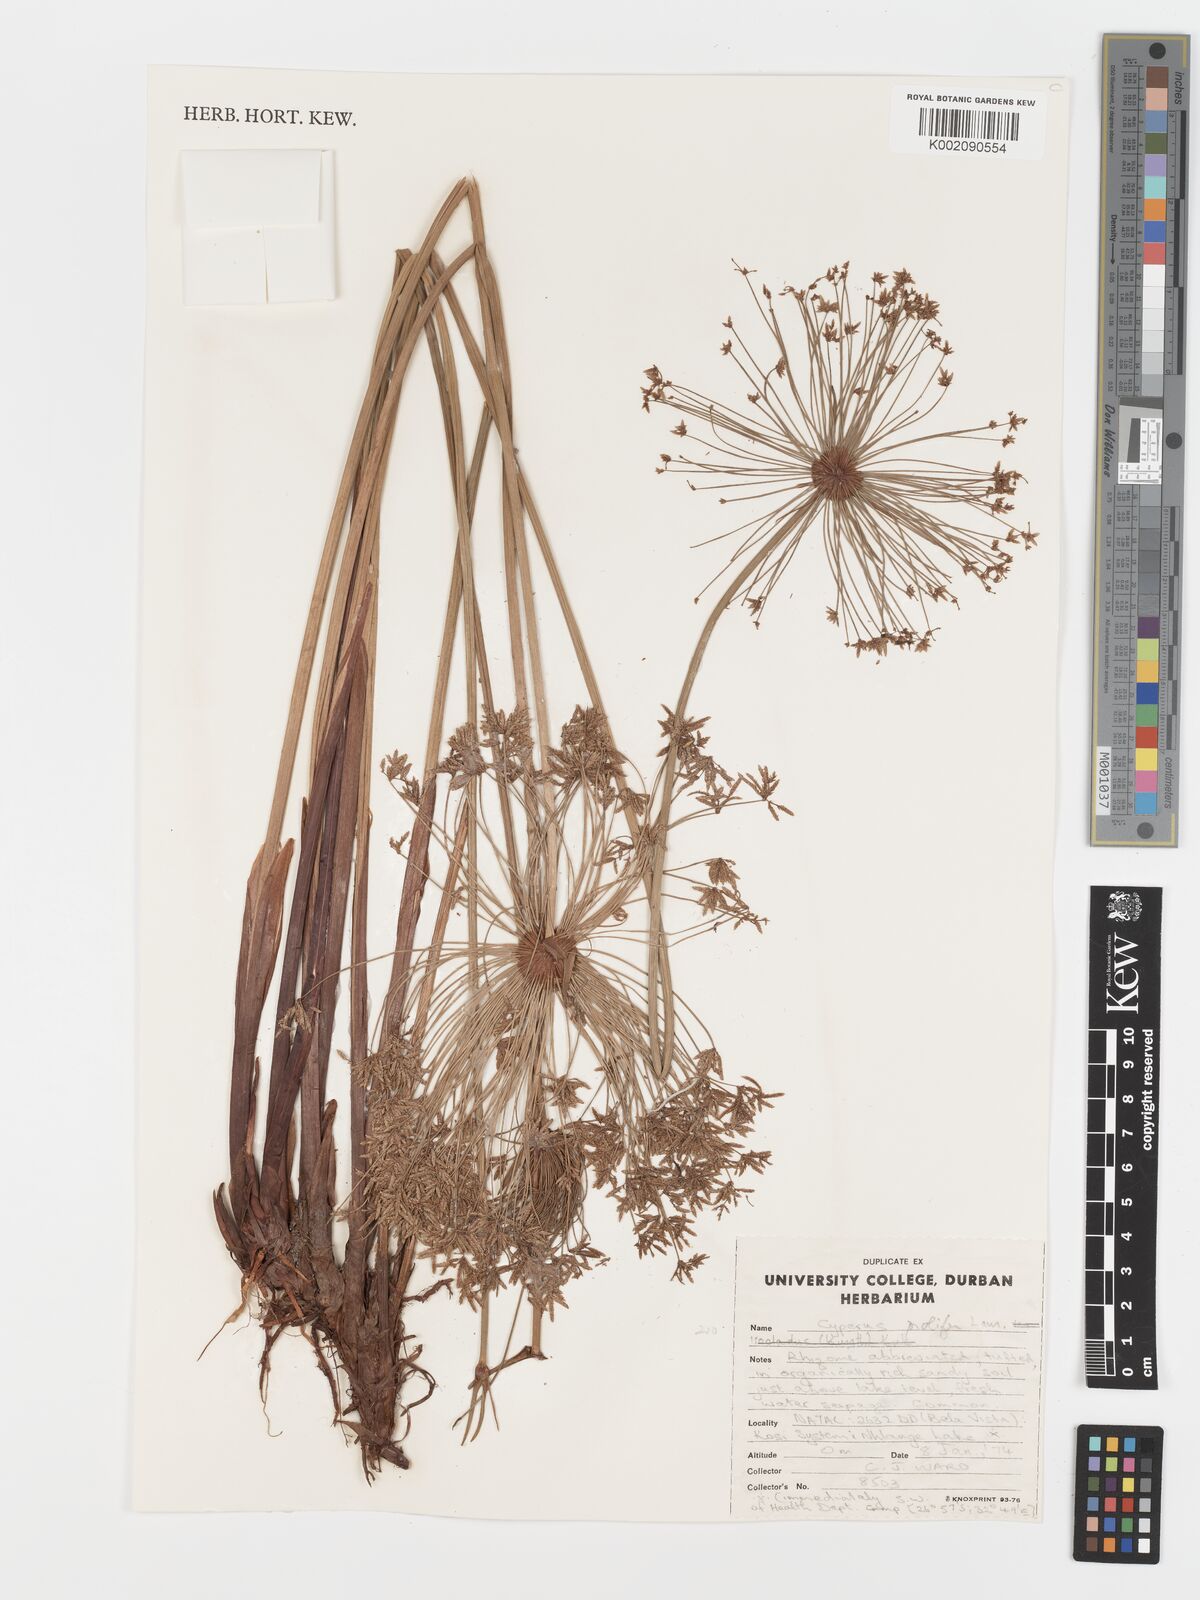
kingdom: Plantae
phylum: Tracheophyta
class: Liliopsida
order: Poales
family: Cyperaceae
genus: Cyperus
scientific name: Cyperus prolifer
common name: Miniature flatsedge
